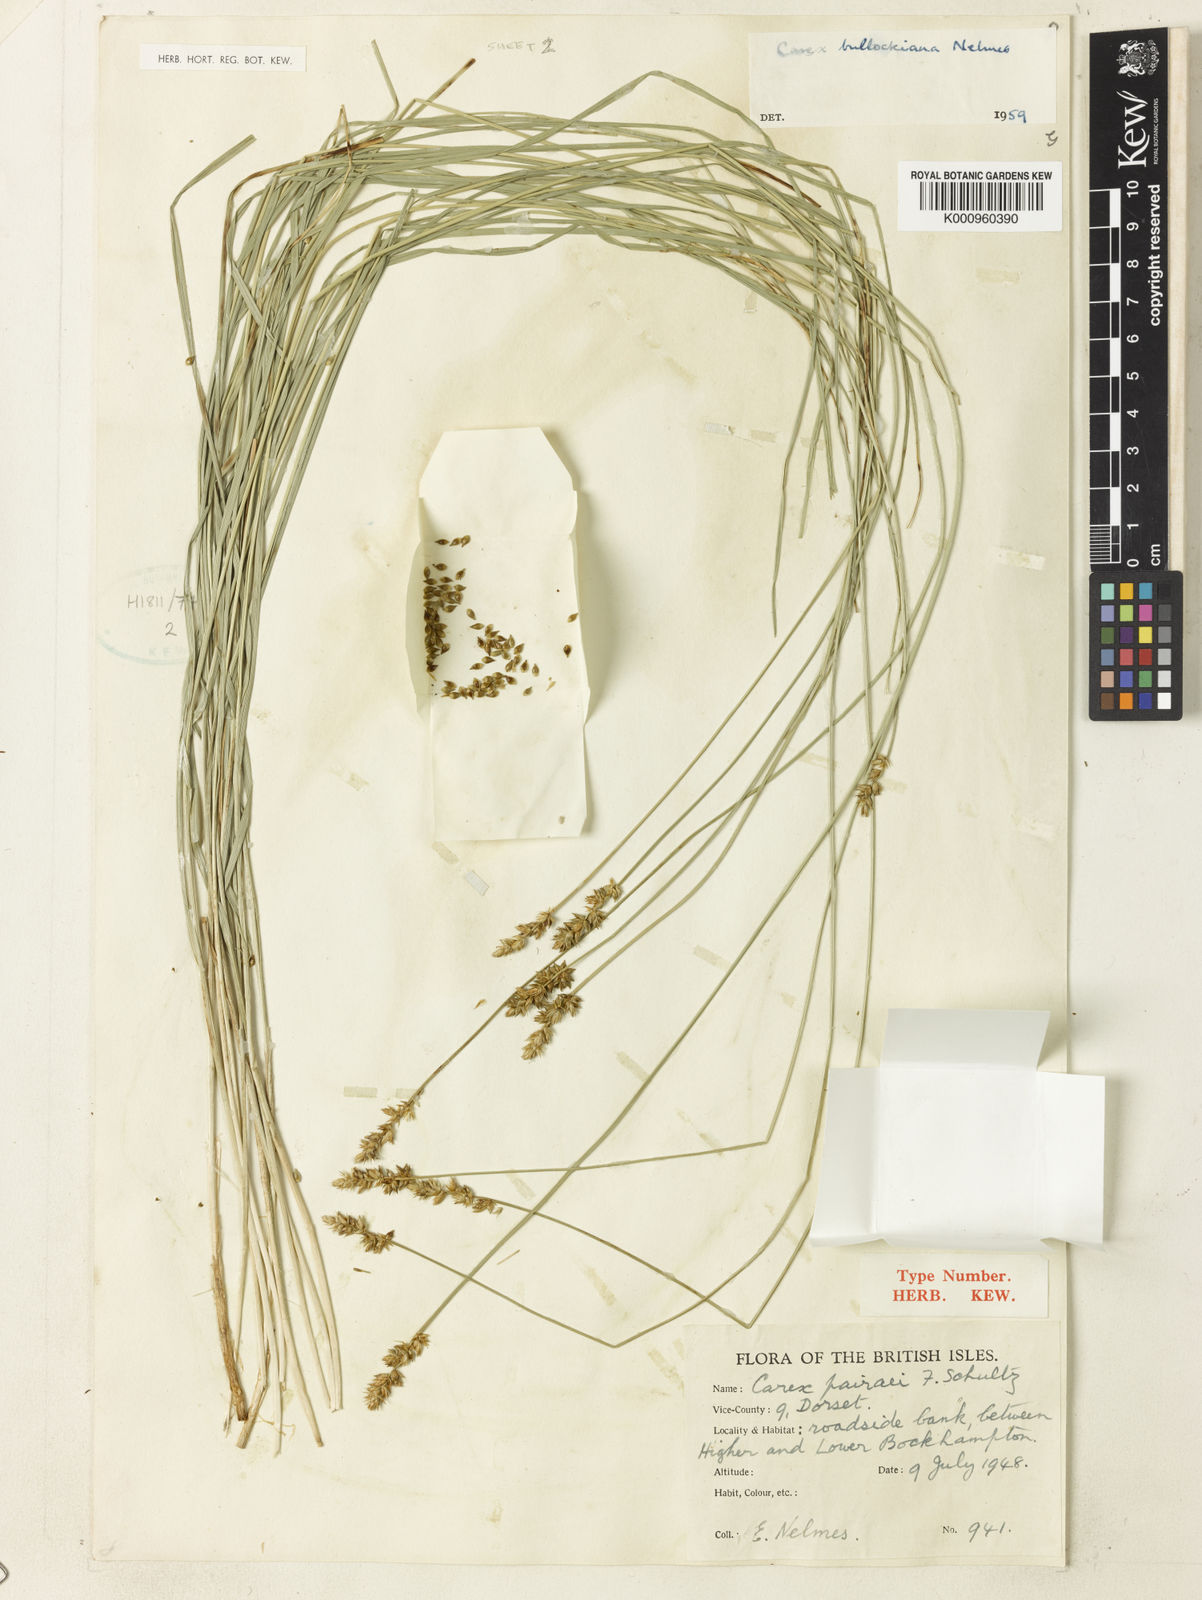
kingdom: Plantae
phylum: Tracheophyta
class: Liliopsida
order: Poales
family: Cyperaceae
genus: Carex
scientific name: Carex muricata
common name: Rough sedge
